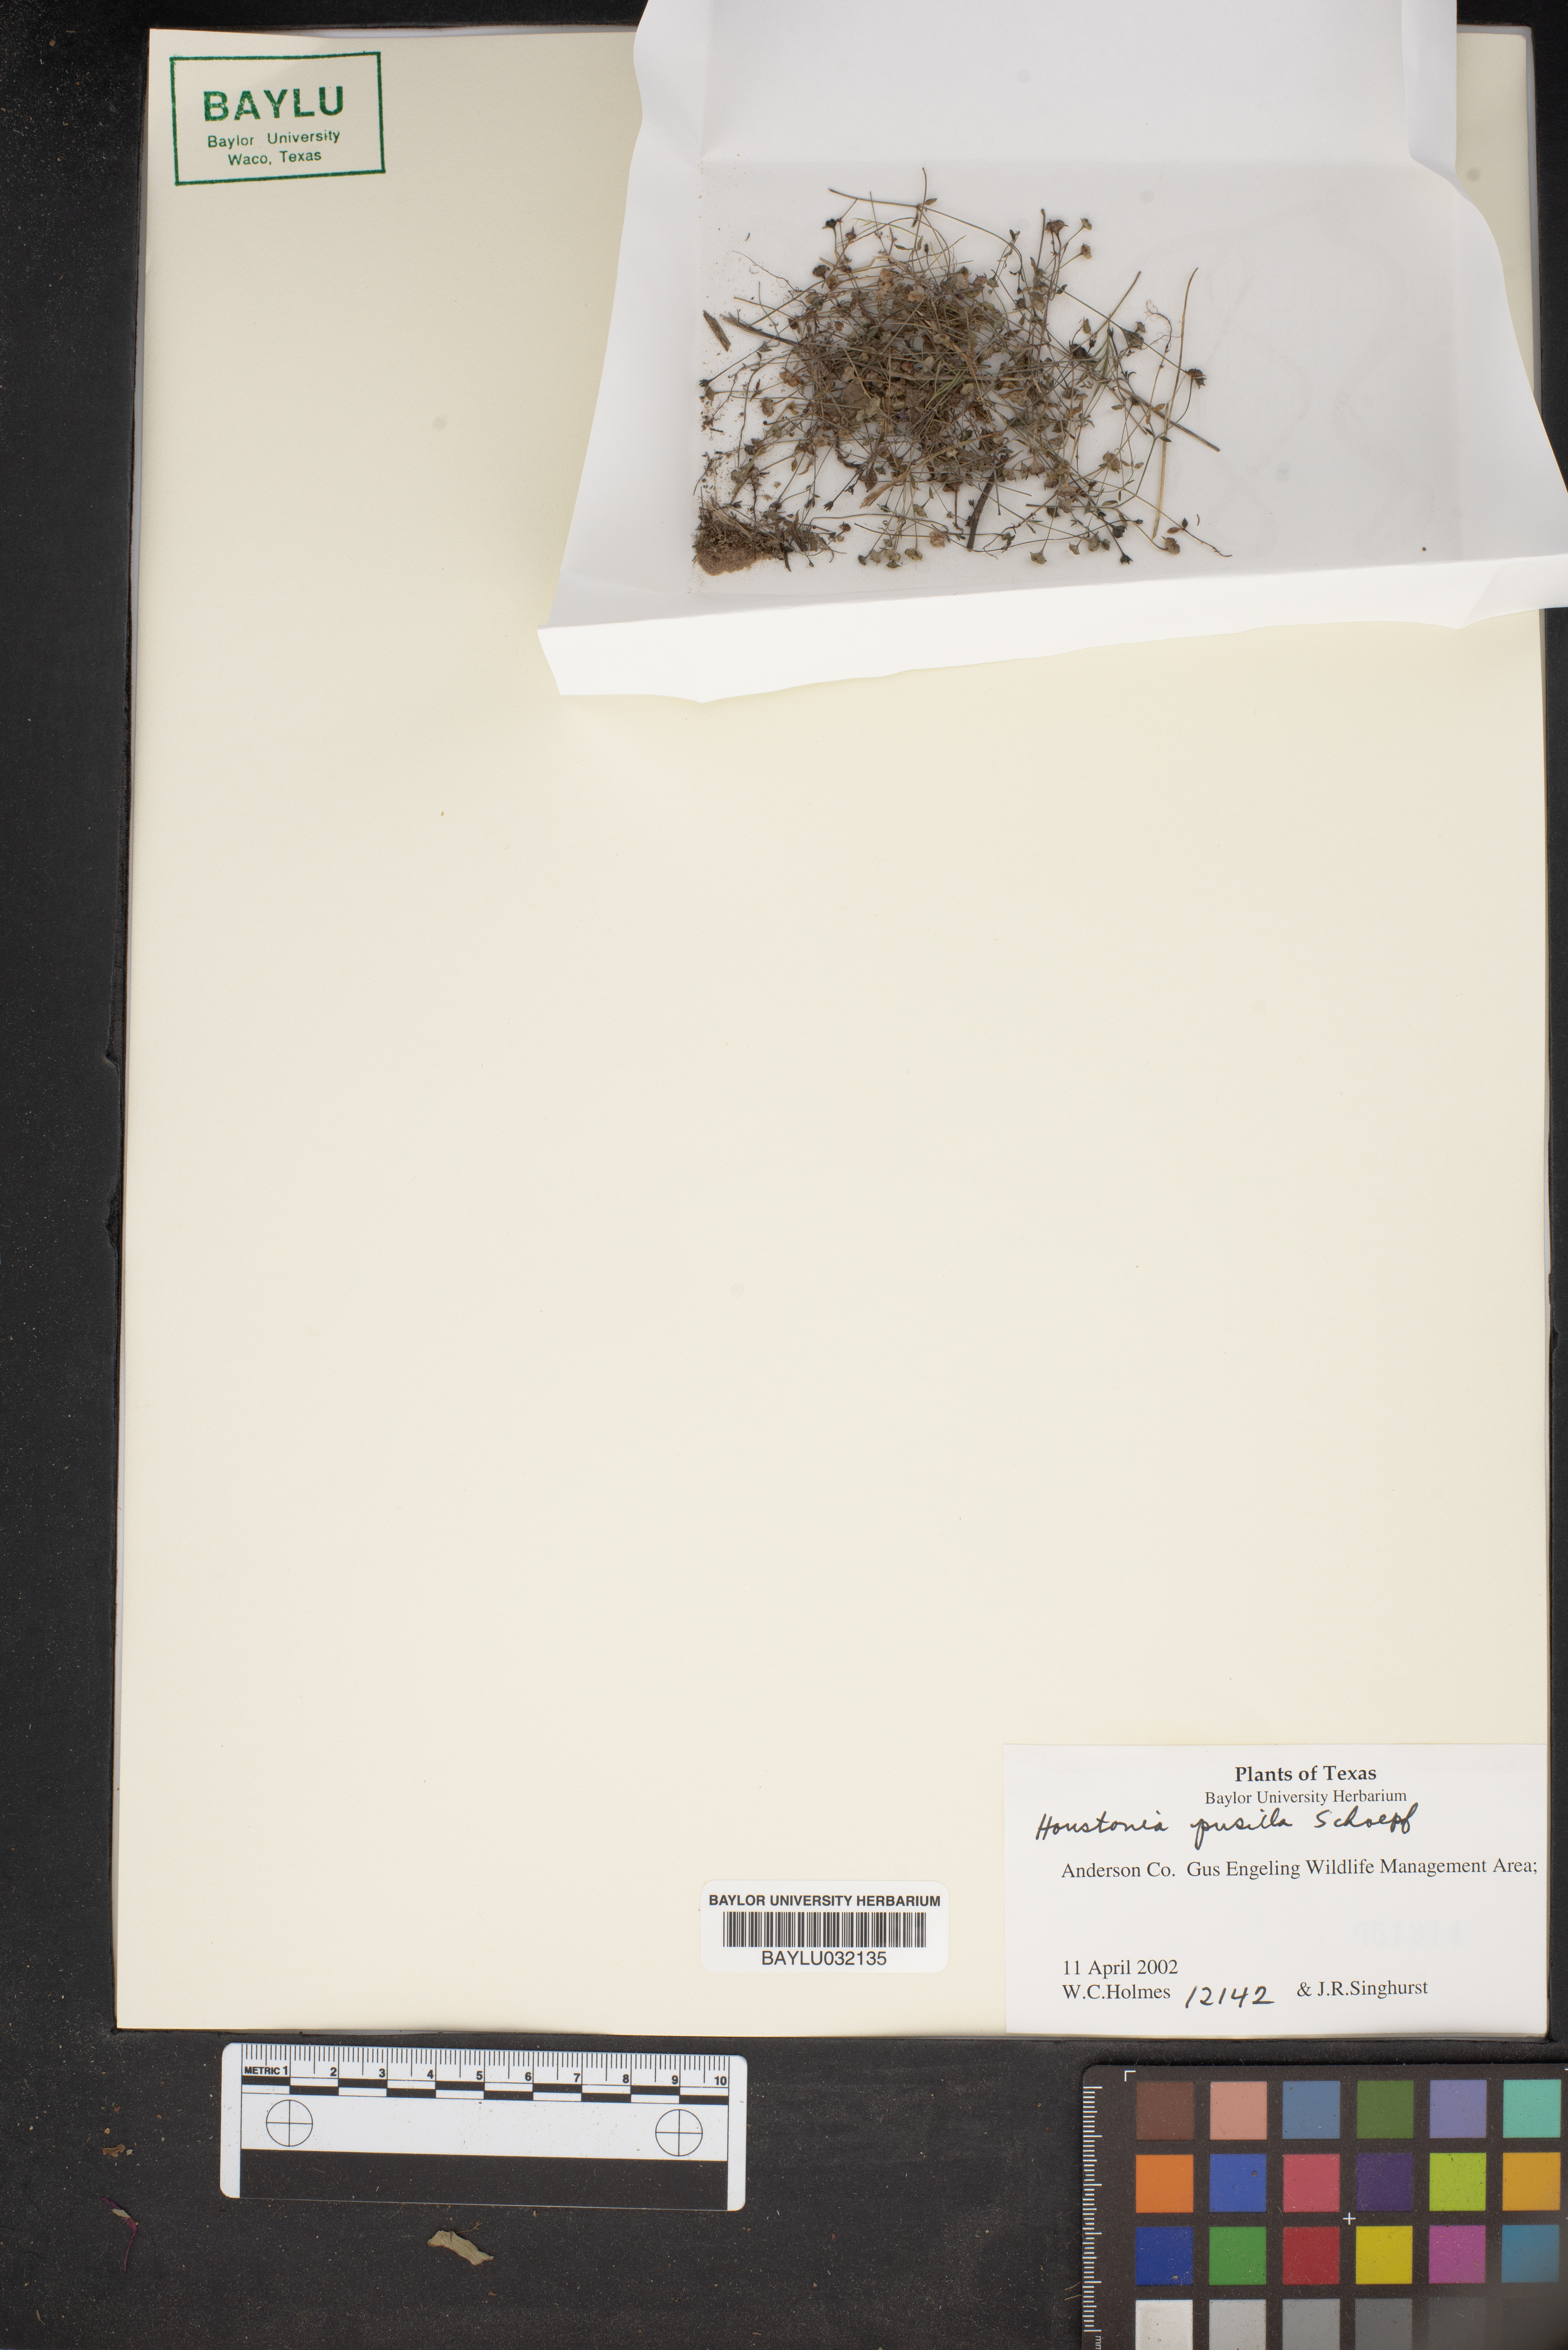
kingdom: Plantae
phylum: Tracheophyta
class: Magnoliopsida
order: Gentianales
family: Rubiaceae
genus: Houstonia
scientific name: Houstonia pusilla
